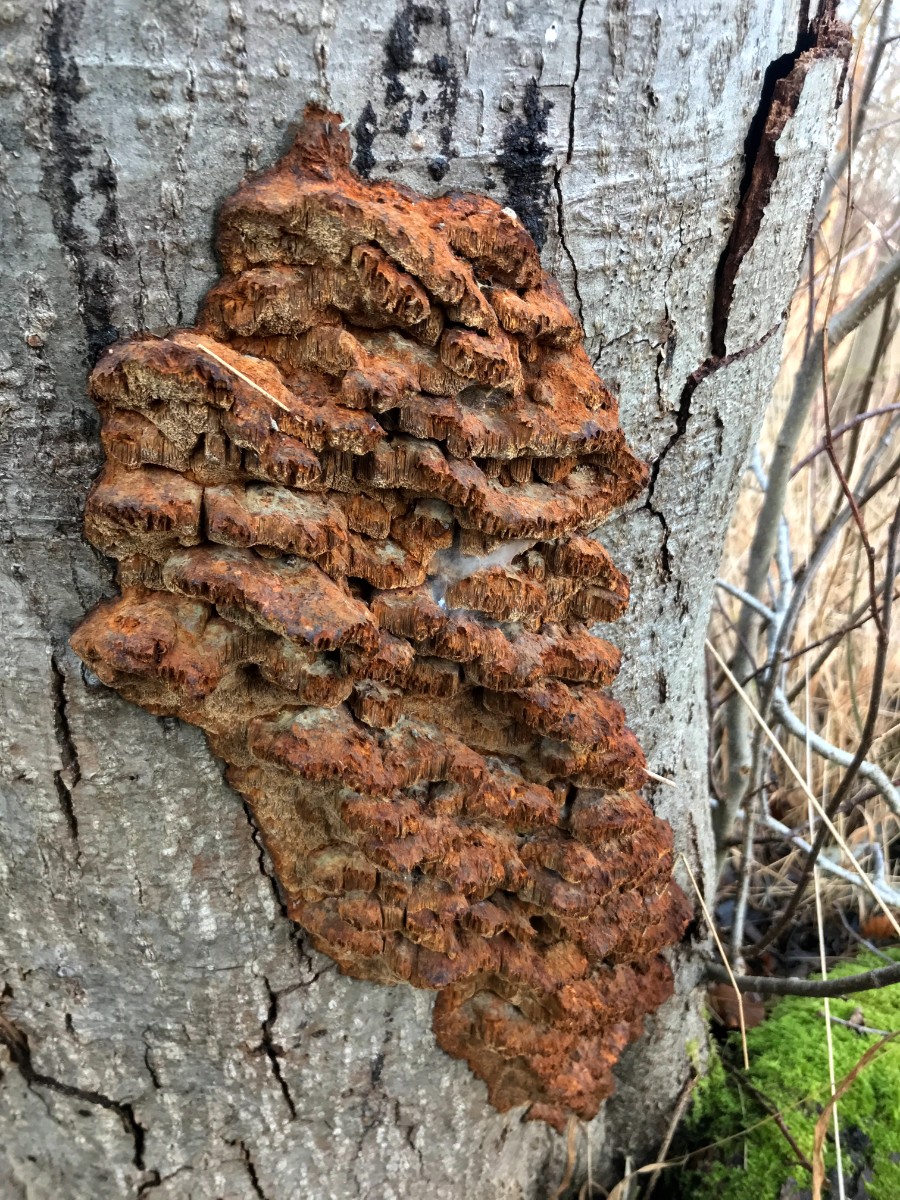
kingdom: Fungi
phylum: Basidiomycota
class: Agaricomycetes
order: Hymenochaetales
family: Hymenochaetaceae
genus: Mensularia
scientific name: Mensularia nodulosa
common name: bøge-spejlporesvamp
